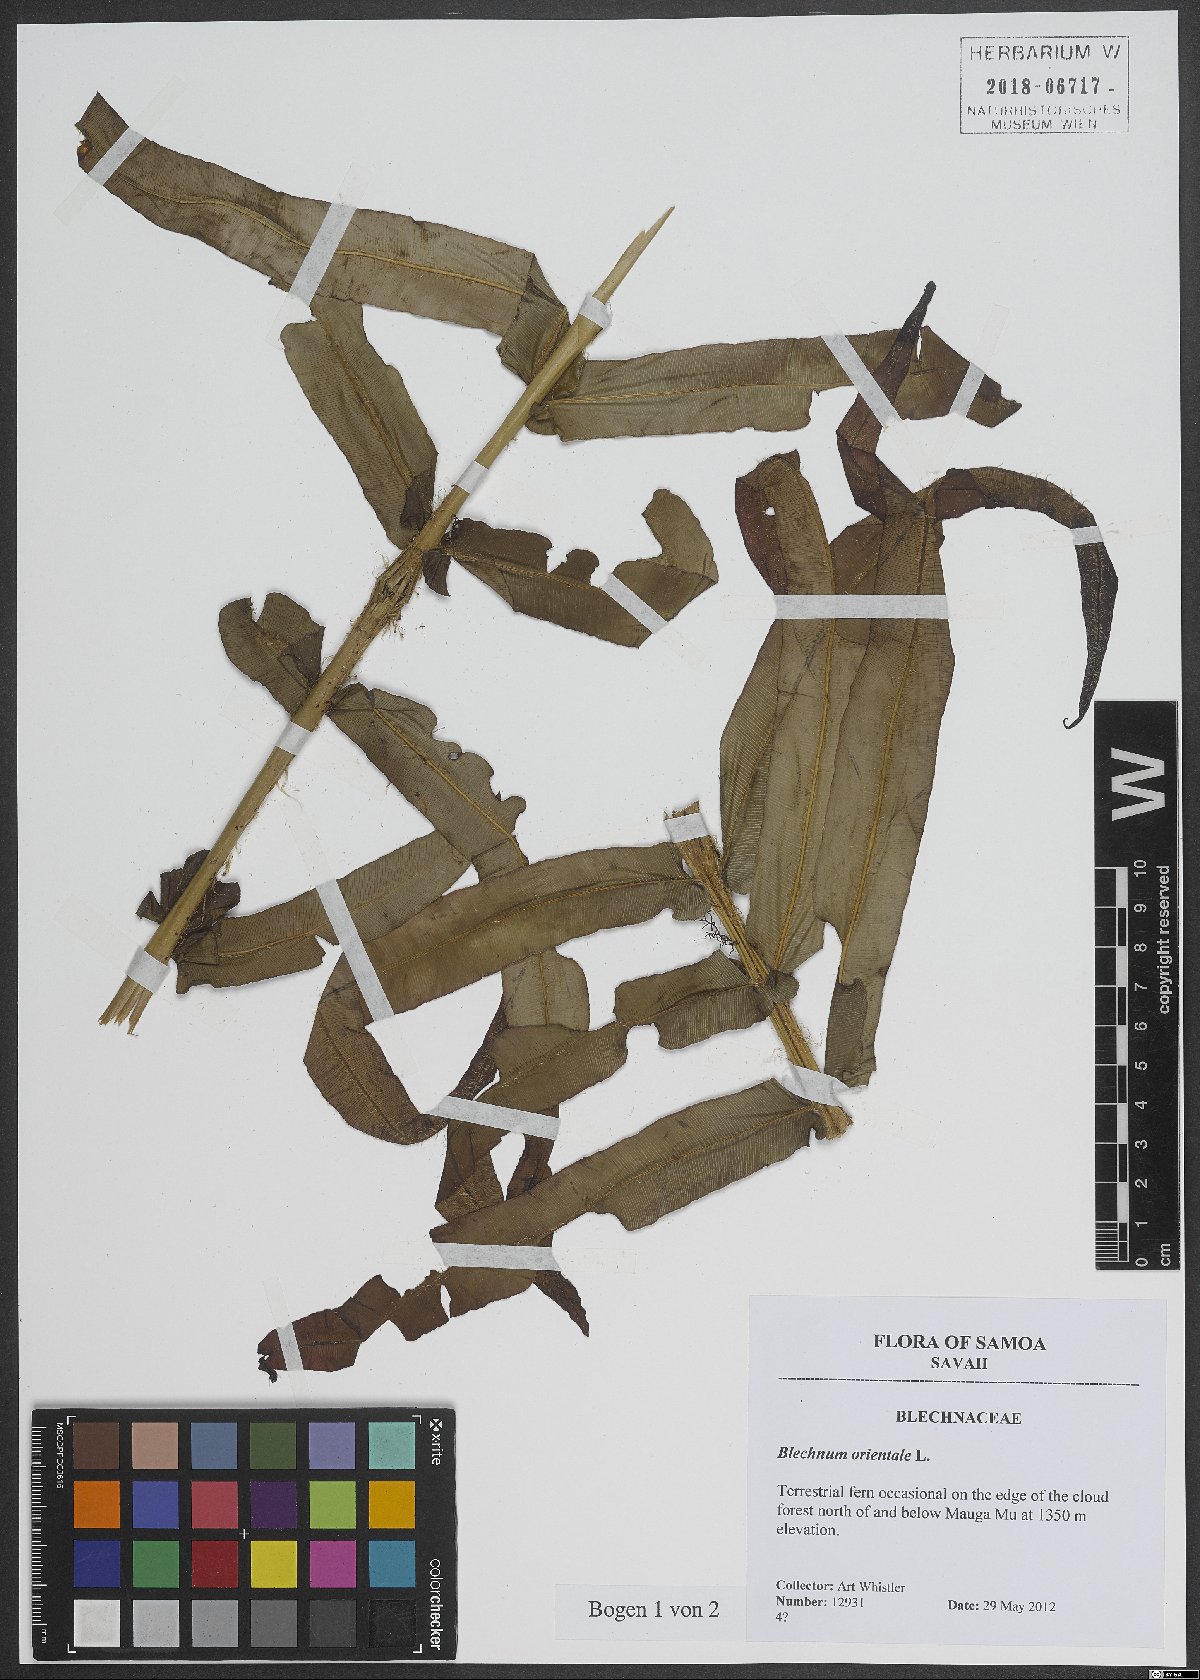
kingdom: Plantae
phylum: Tracheophyta
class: Polypodiopsida
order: Polypodiales
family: Blechnaceae
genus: Blechnopsis
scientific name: Blechnopsis orientalis
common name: Oriental blechnum
